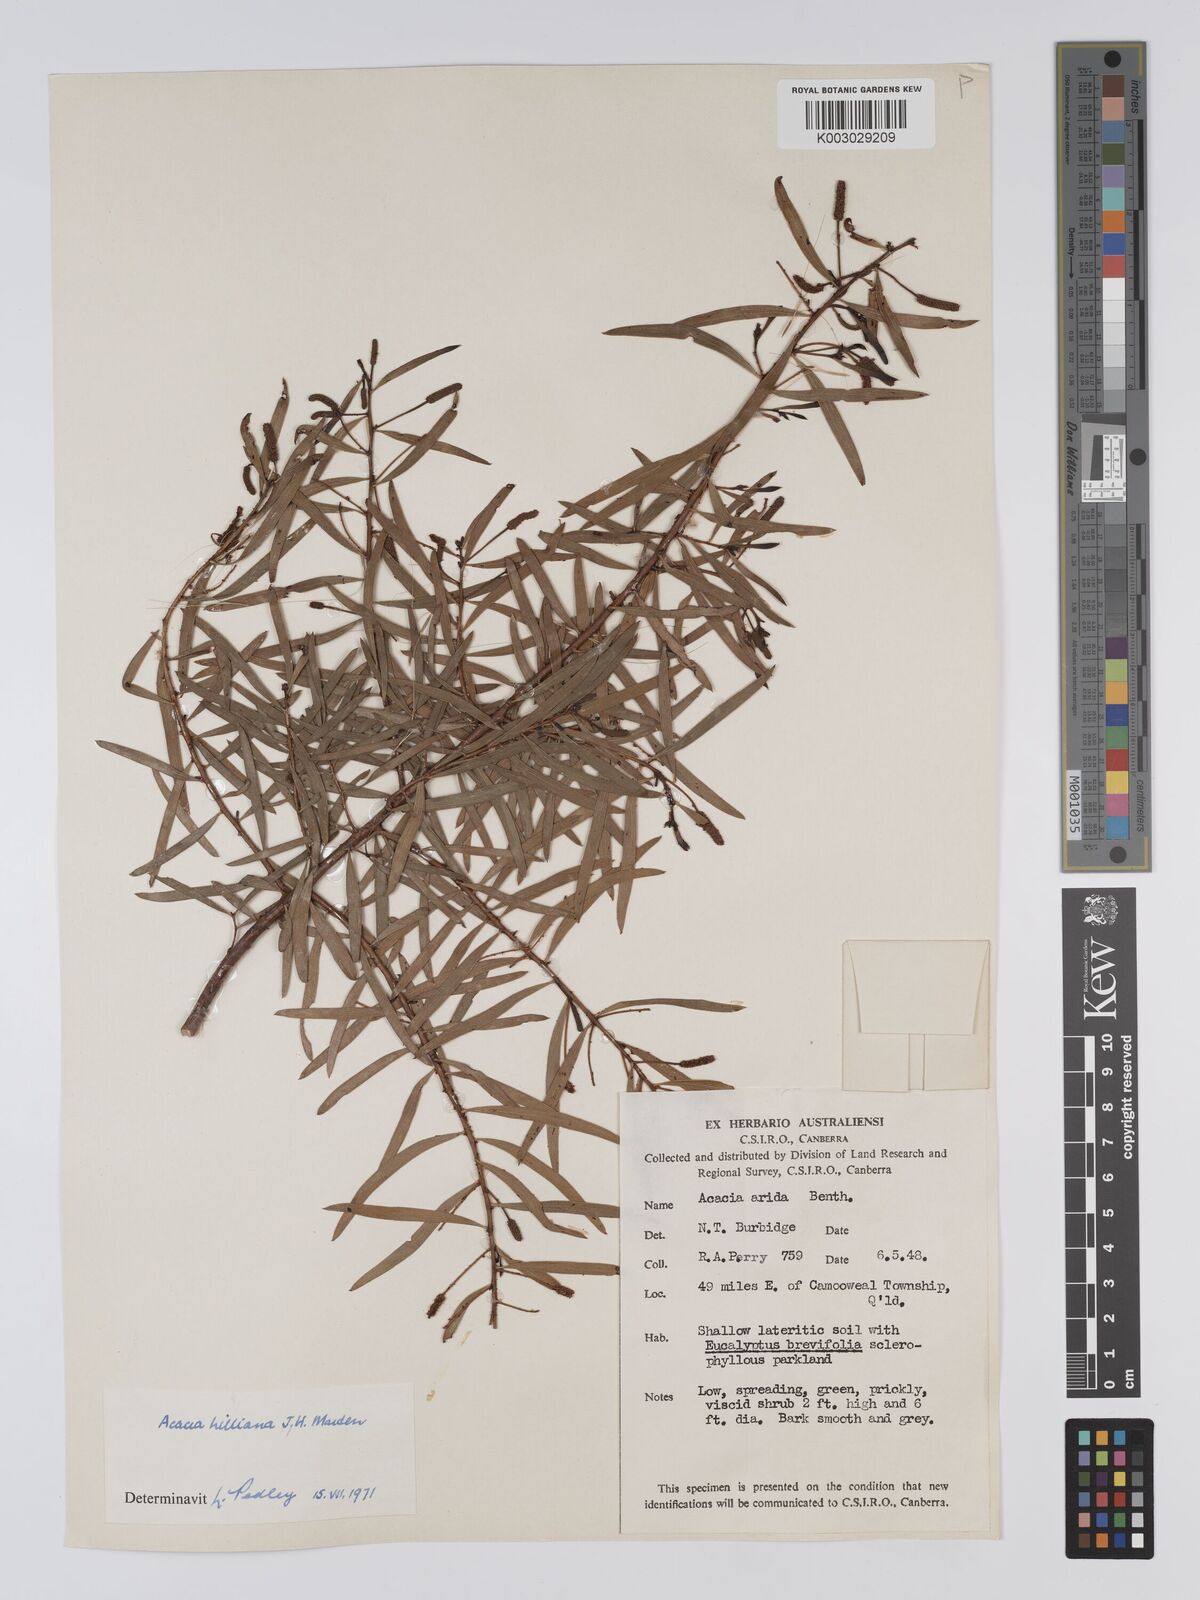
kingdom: Plantae
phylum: Tracheophyta
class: Magnoliopsida
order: Fabales
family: Fabaceae
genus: Acacia
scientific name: Acacia hilliana
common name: Hill's tabletop wattle
